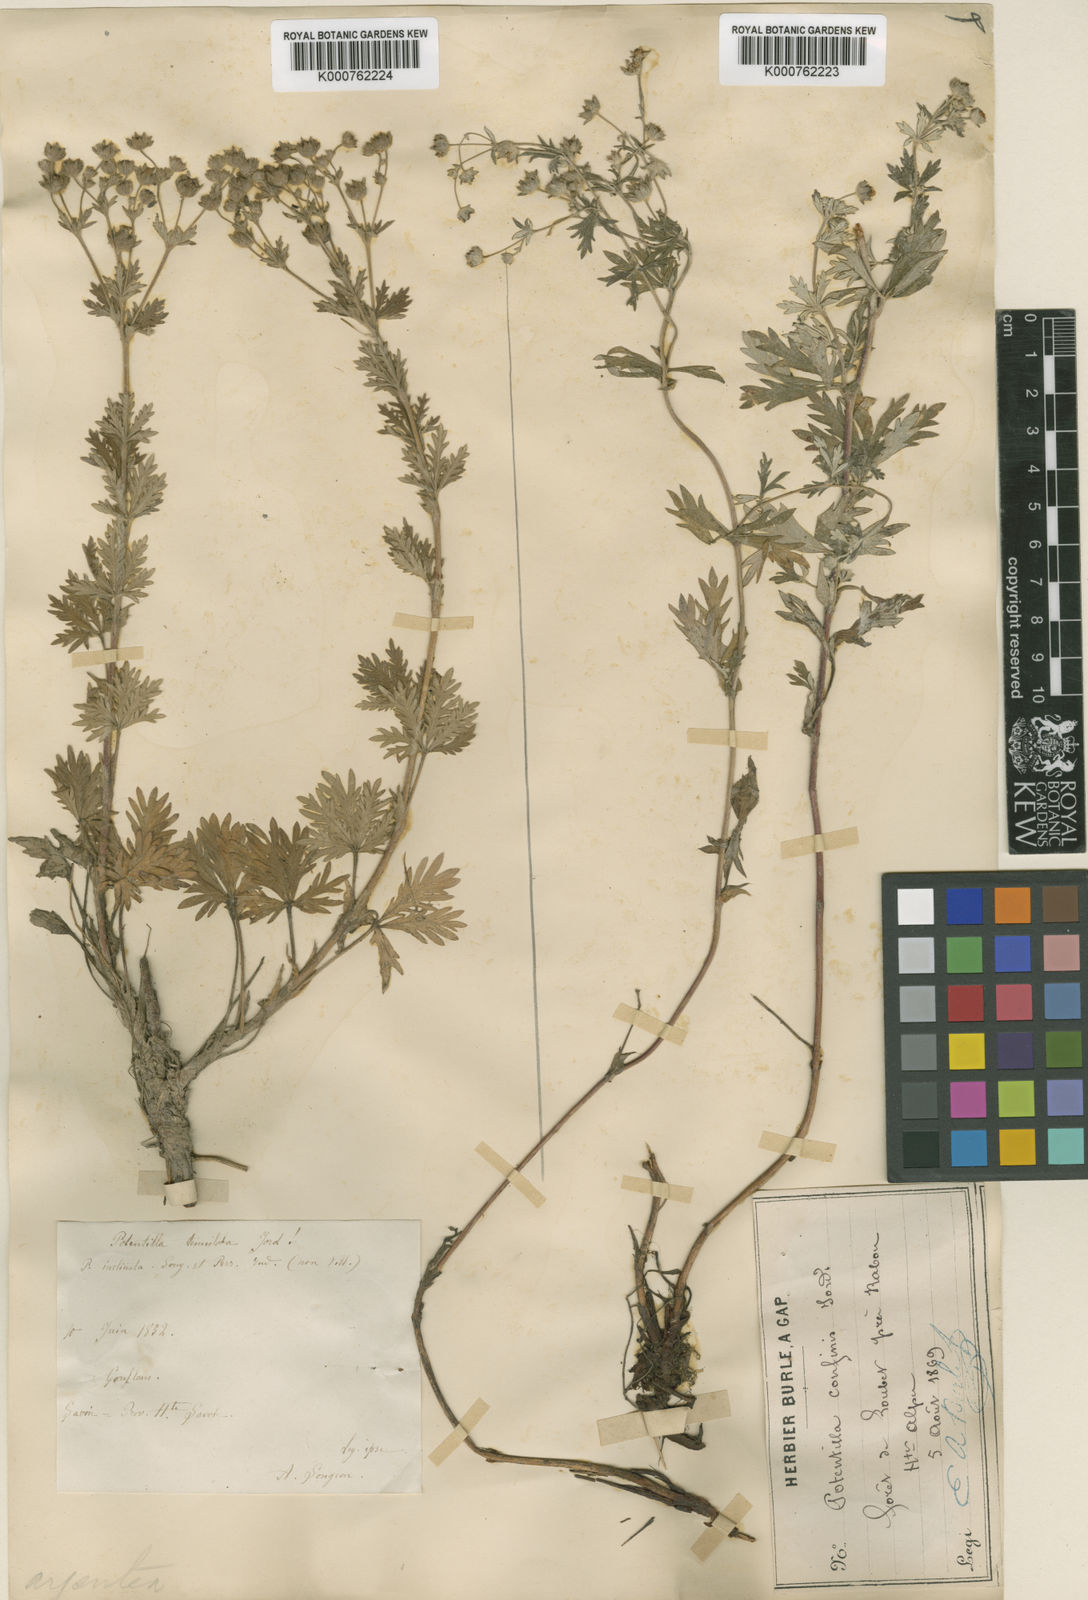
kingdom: Plantae
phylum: Tracheophyta
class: Magnoliopsida
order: Rosales
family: Rosaceae
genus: Potentilla
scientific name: Potentilla argentea
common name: Hoary cinquefoil
